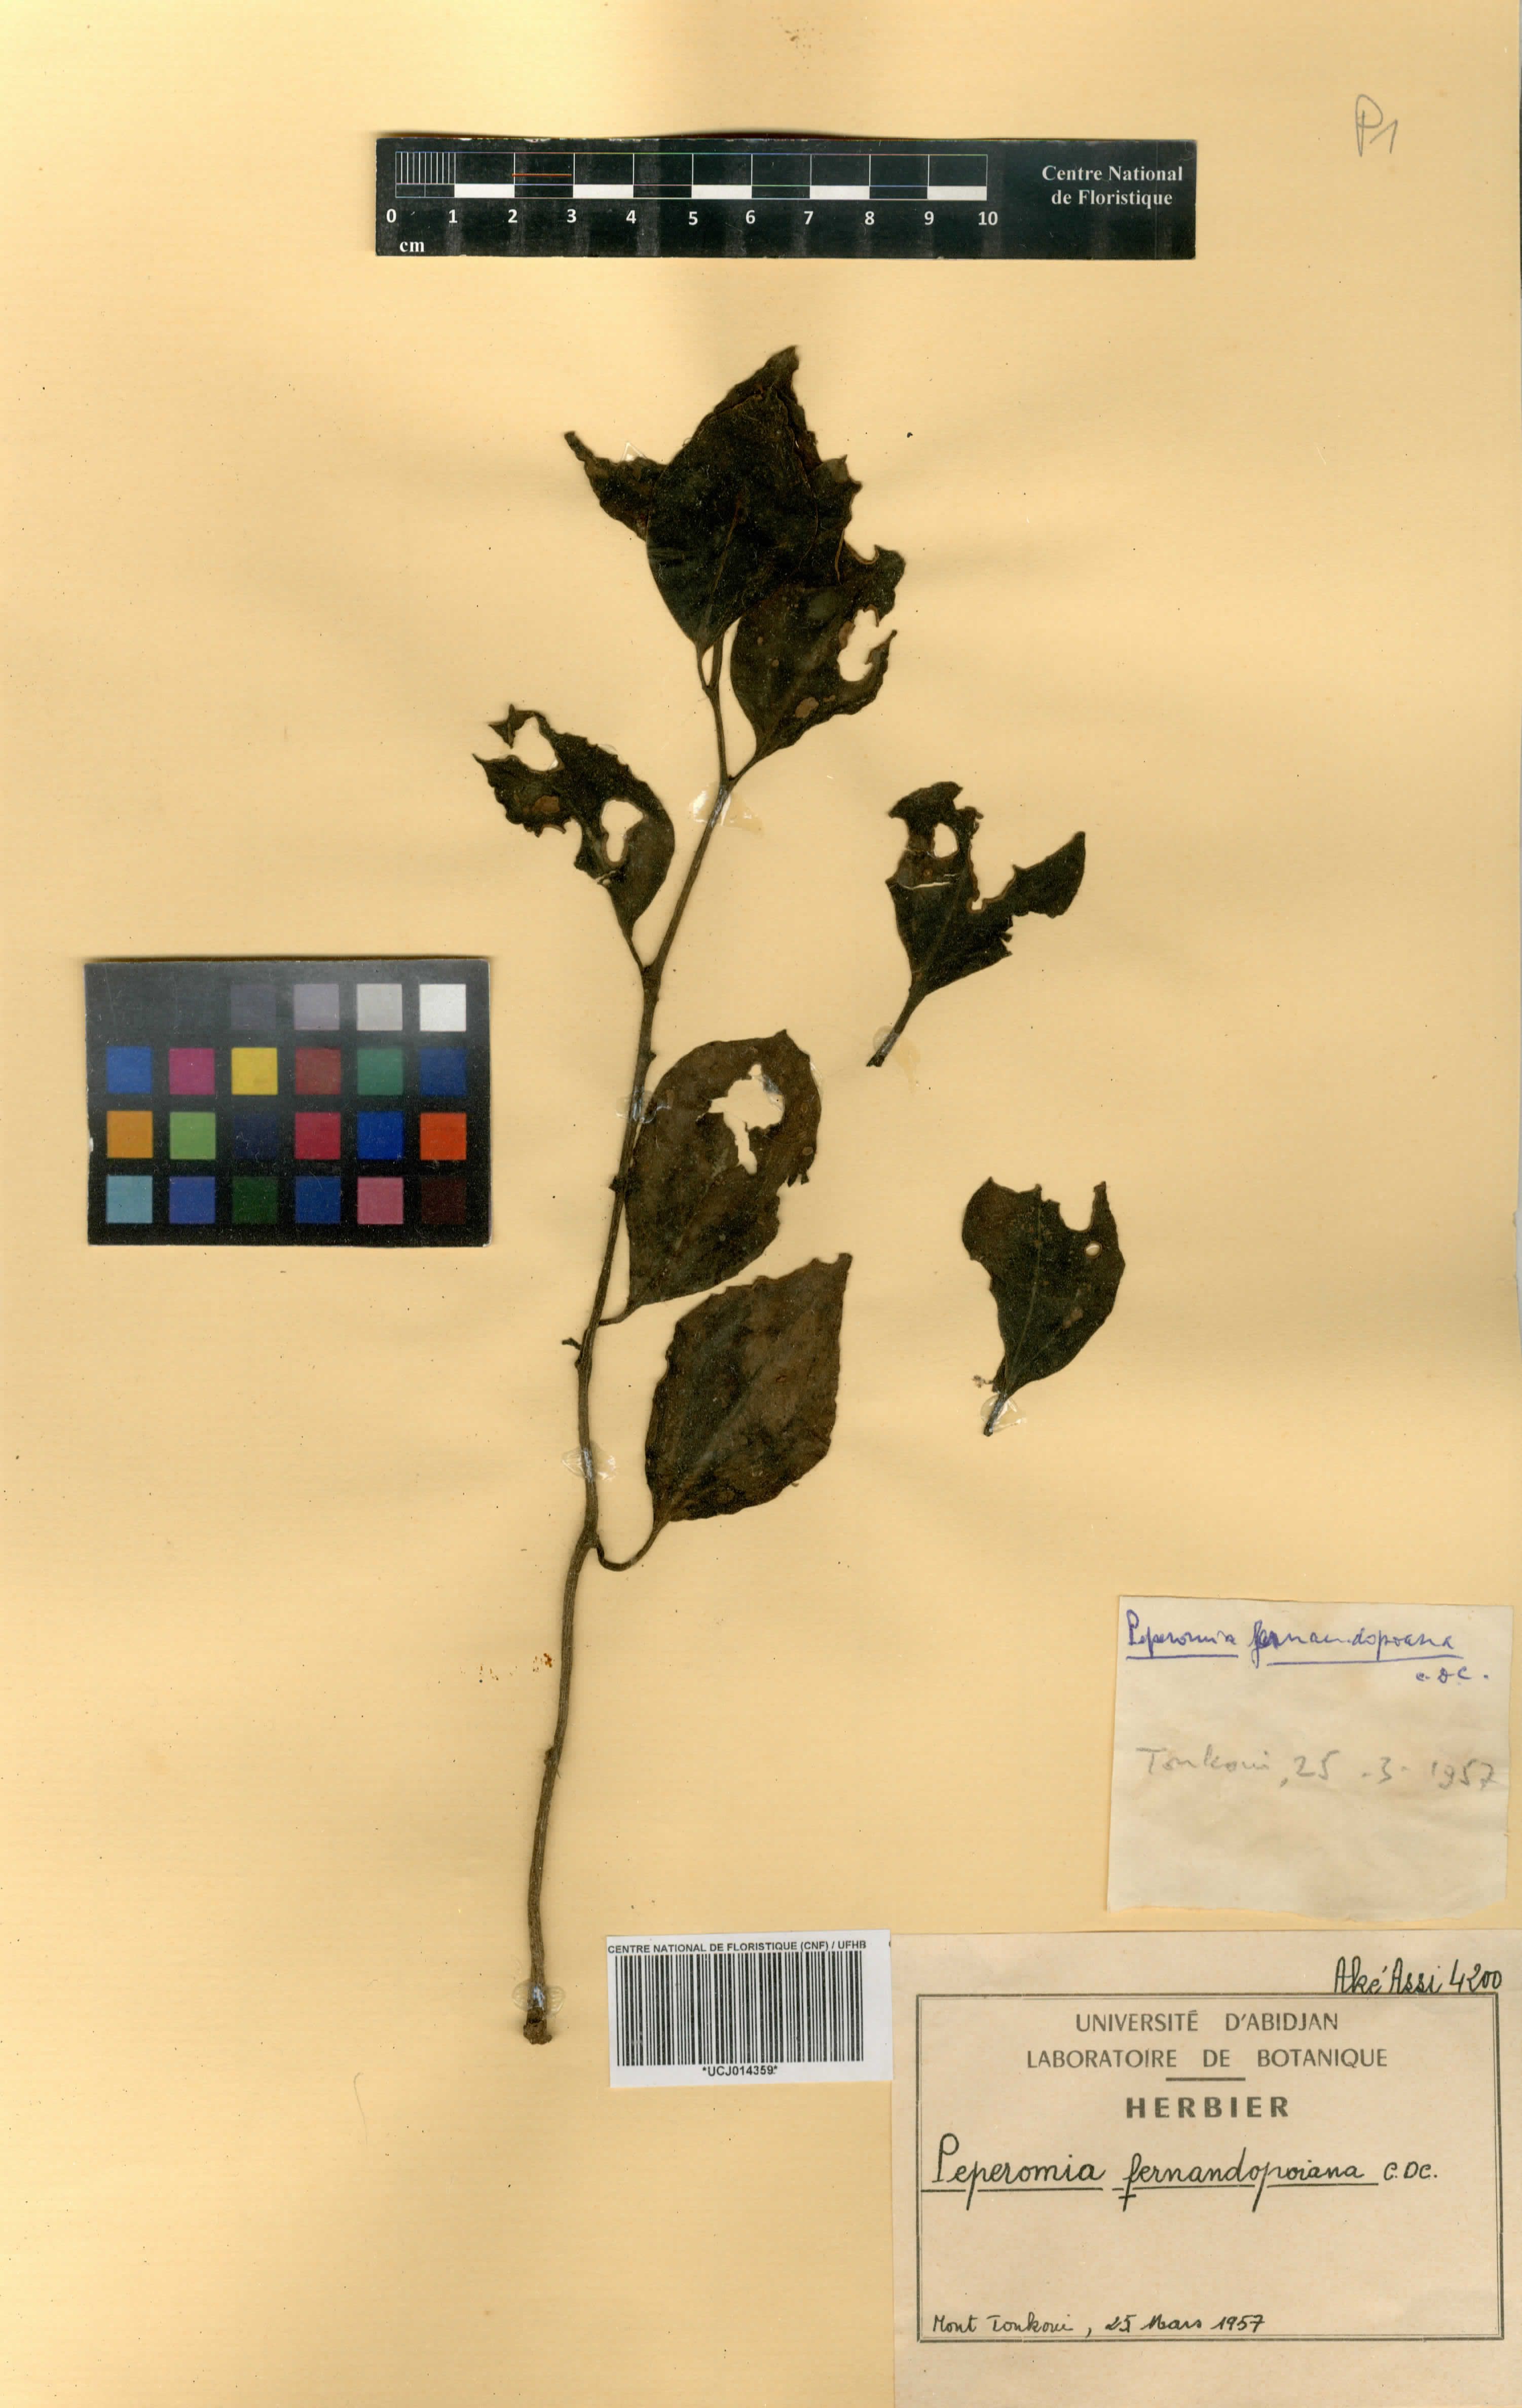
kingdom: Plantae
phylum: Tracheophyta
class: Magnoliopsida
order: Piperales
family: Piperaceae
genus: Peperomia
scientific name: Peperomia fernandopoiana
